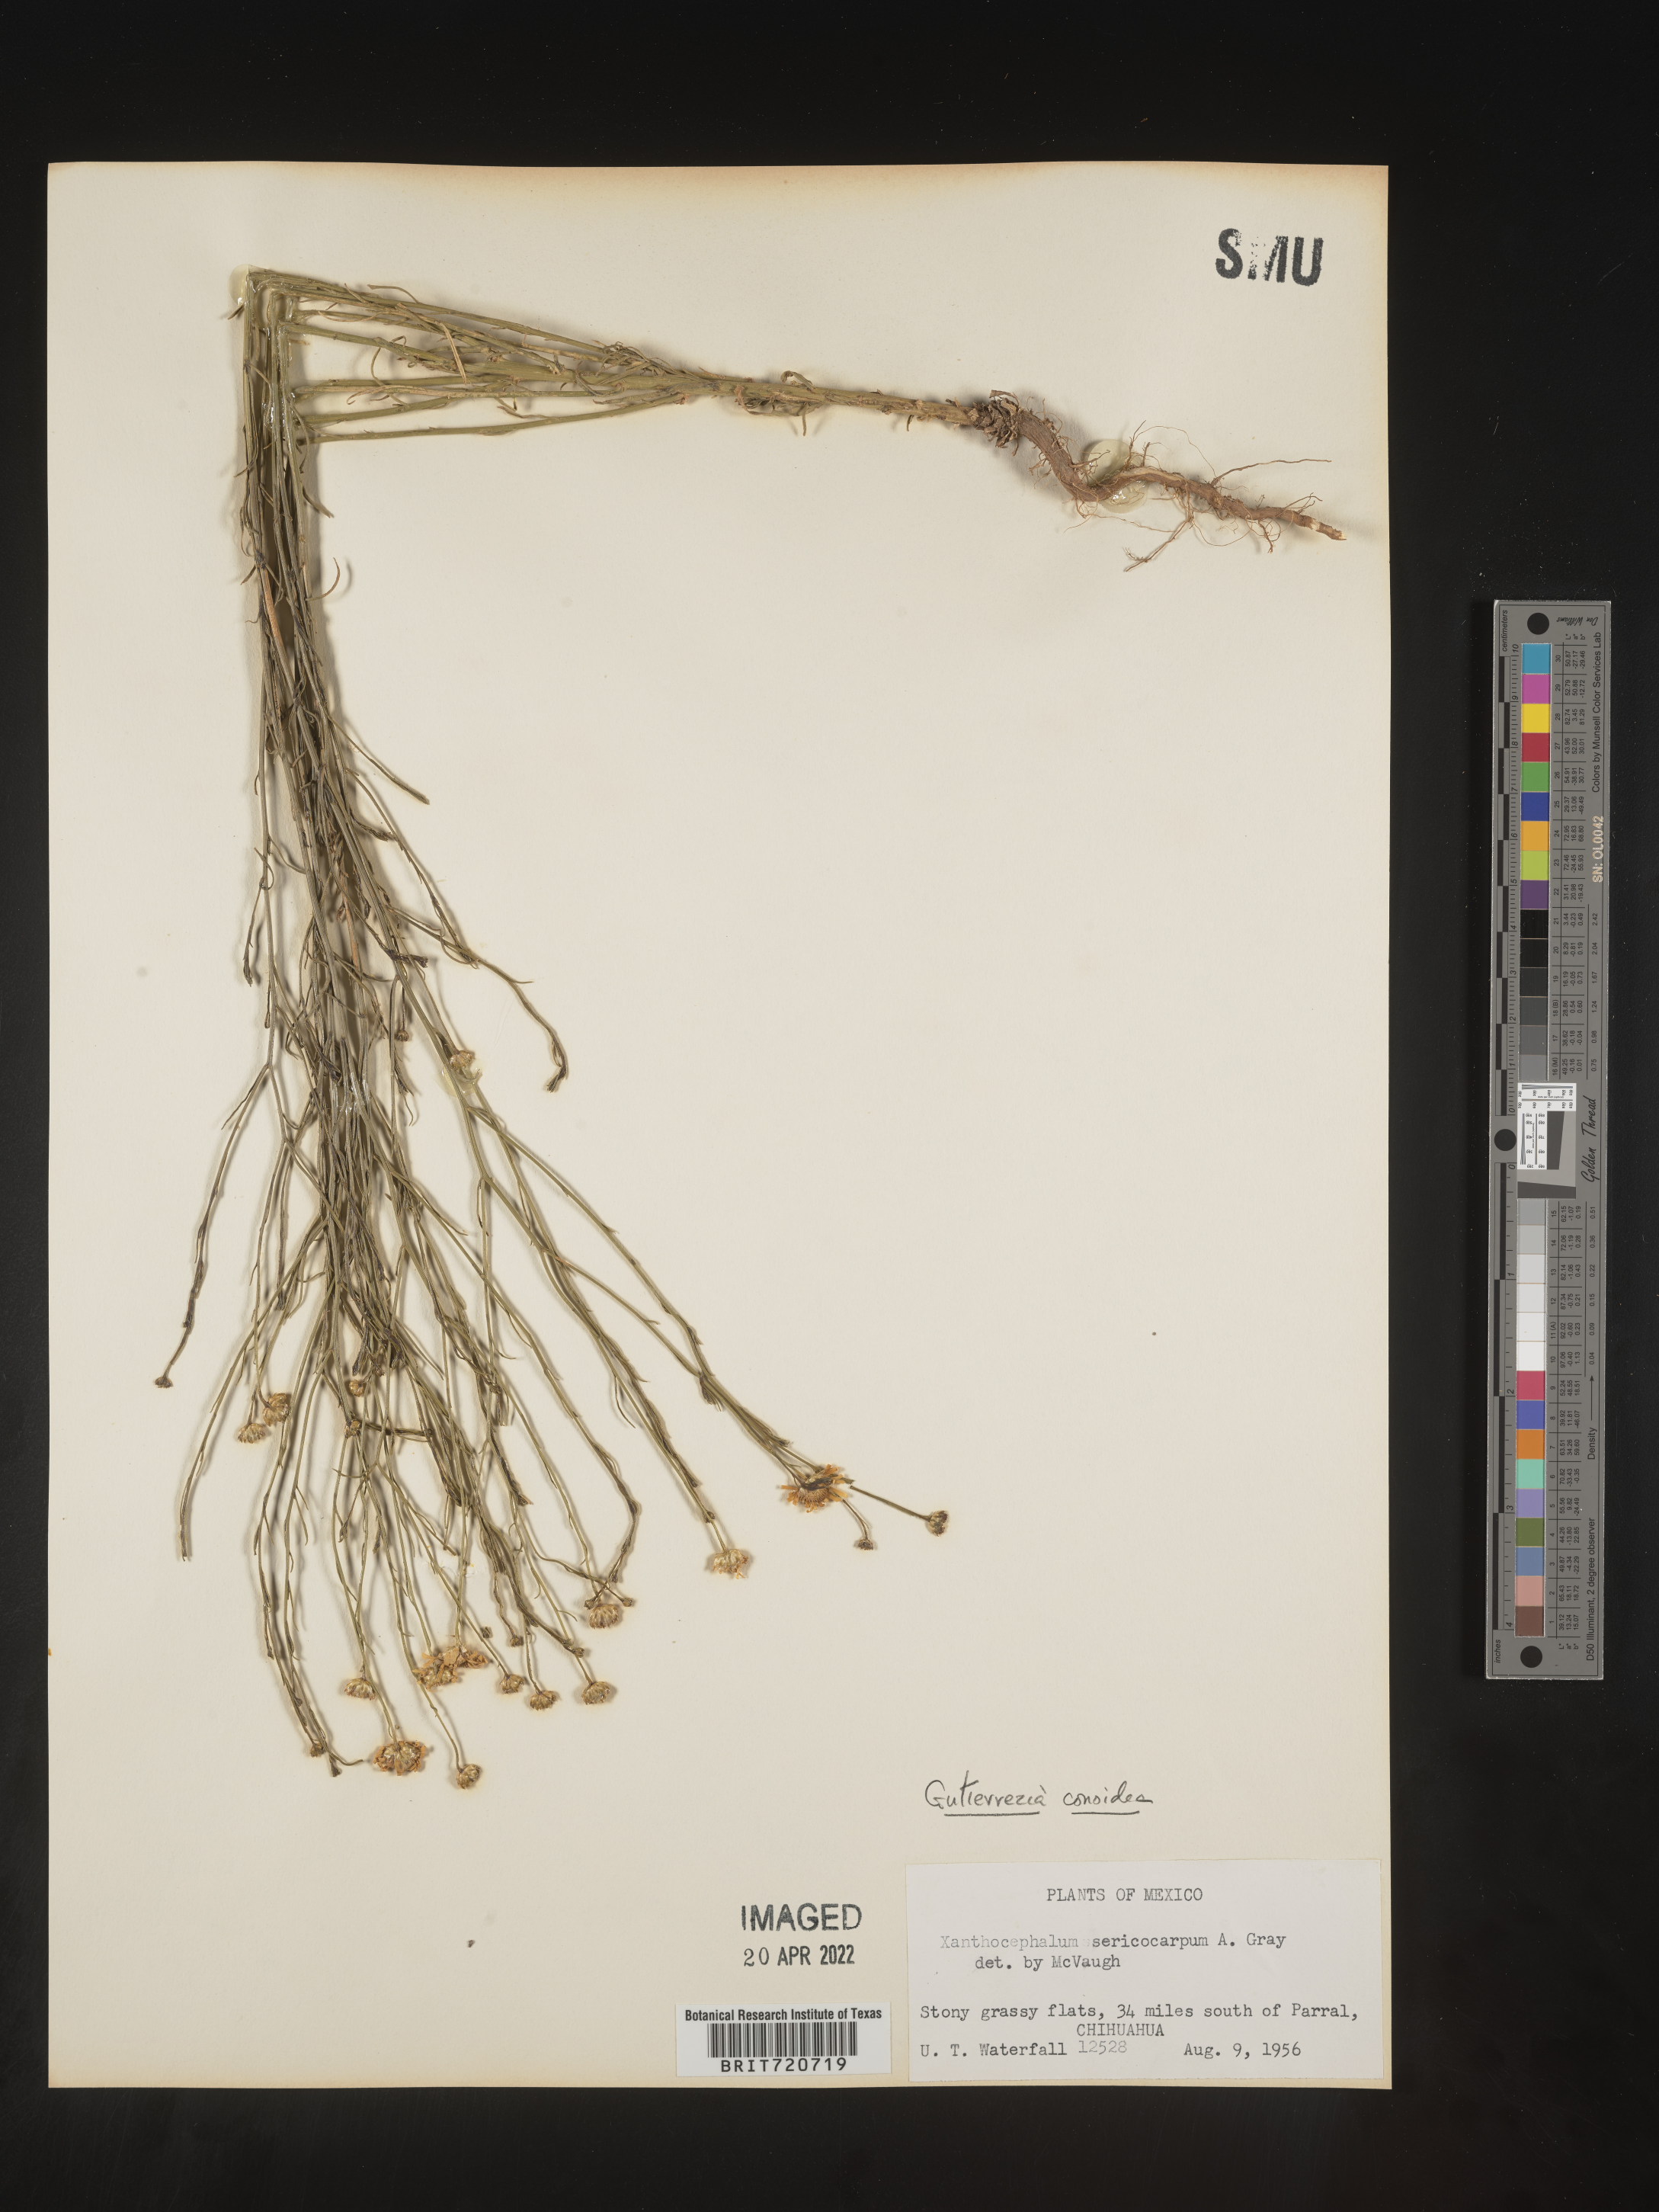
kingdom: Plantae
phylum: Tracheophyta
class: Magnoliopsida
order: Asterales
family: Asteraceae
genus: Gutierrezia
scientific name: Gutierrezia conoidea
